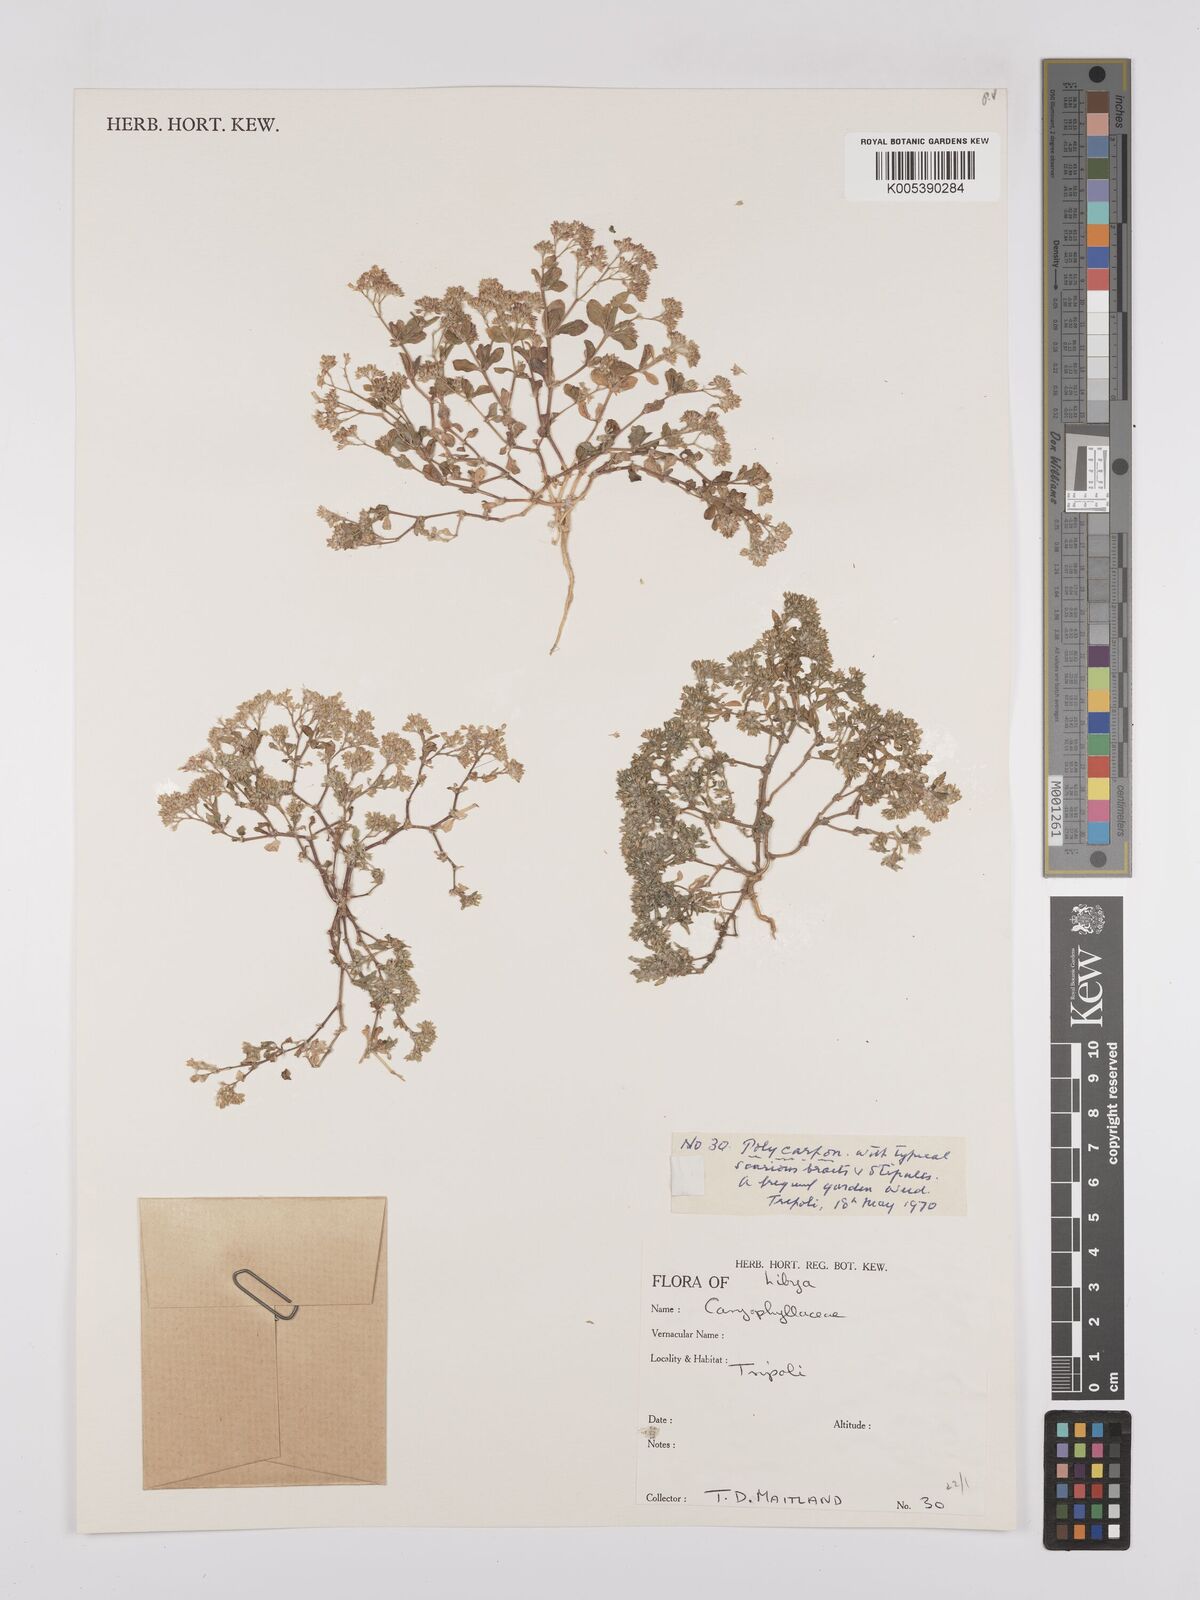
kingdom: Plantae
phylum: Tracheophyta
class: Magnoliopsida
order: Caryophyllales
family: Caryophyllaceae
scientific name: Caryophyllaceae
